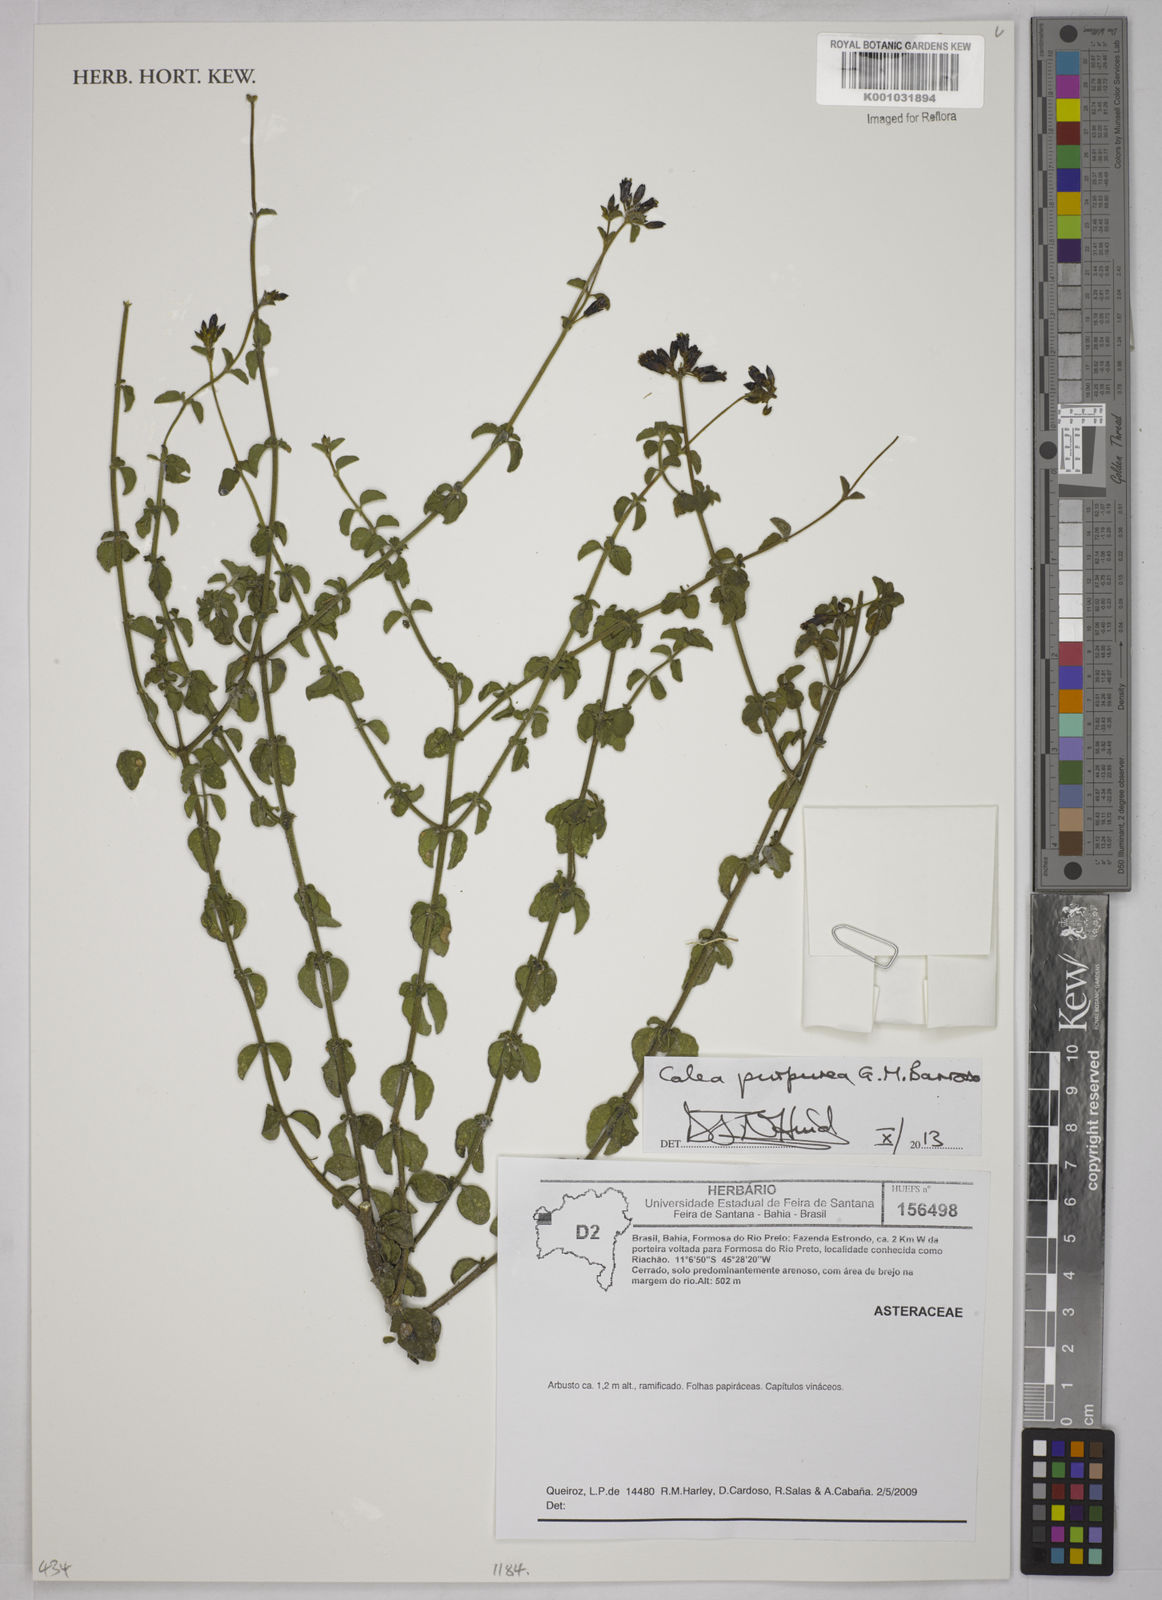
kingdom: Plantae
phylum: Tracheophyta
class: Magnoliopsida
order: Asterales
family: Asteraceae
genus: Calea
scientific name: Calea purpurea
